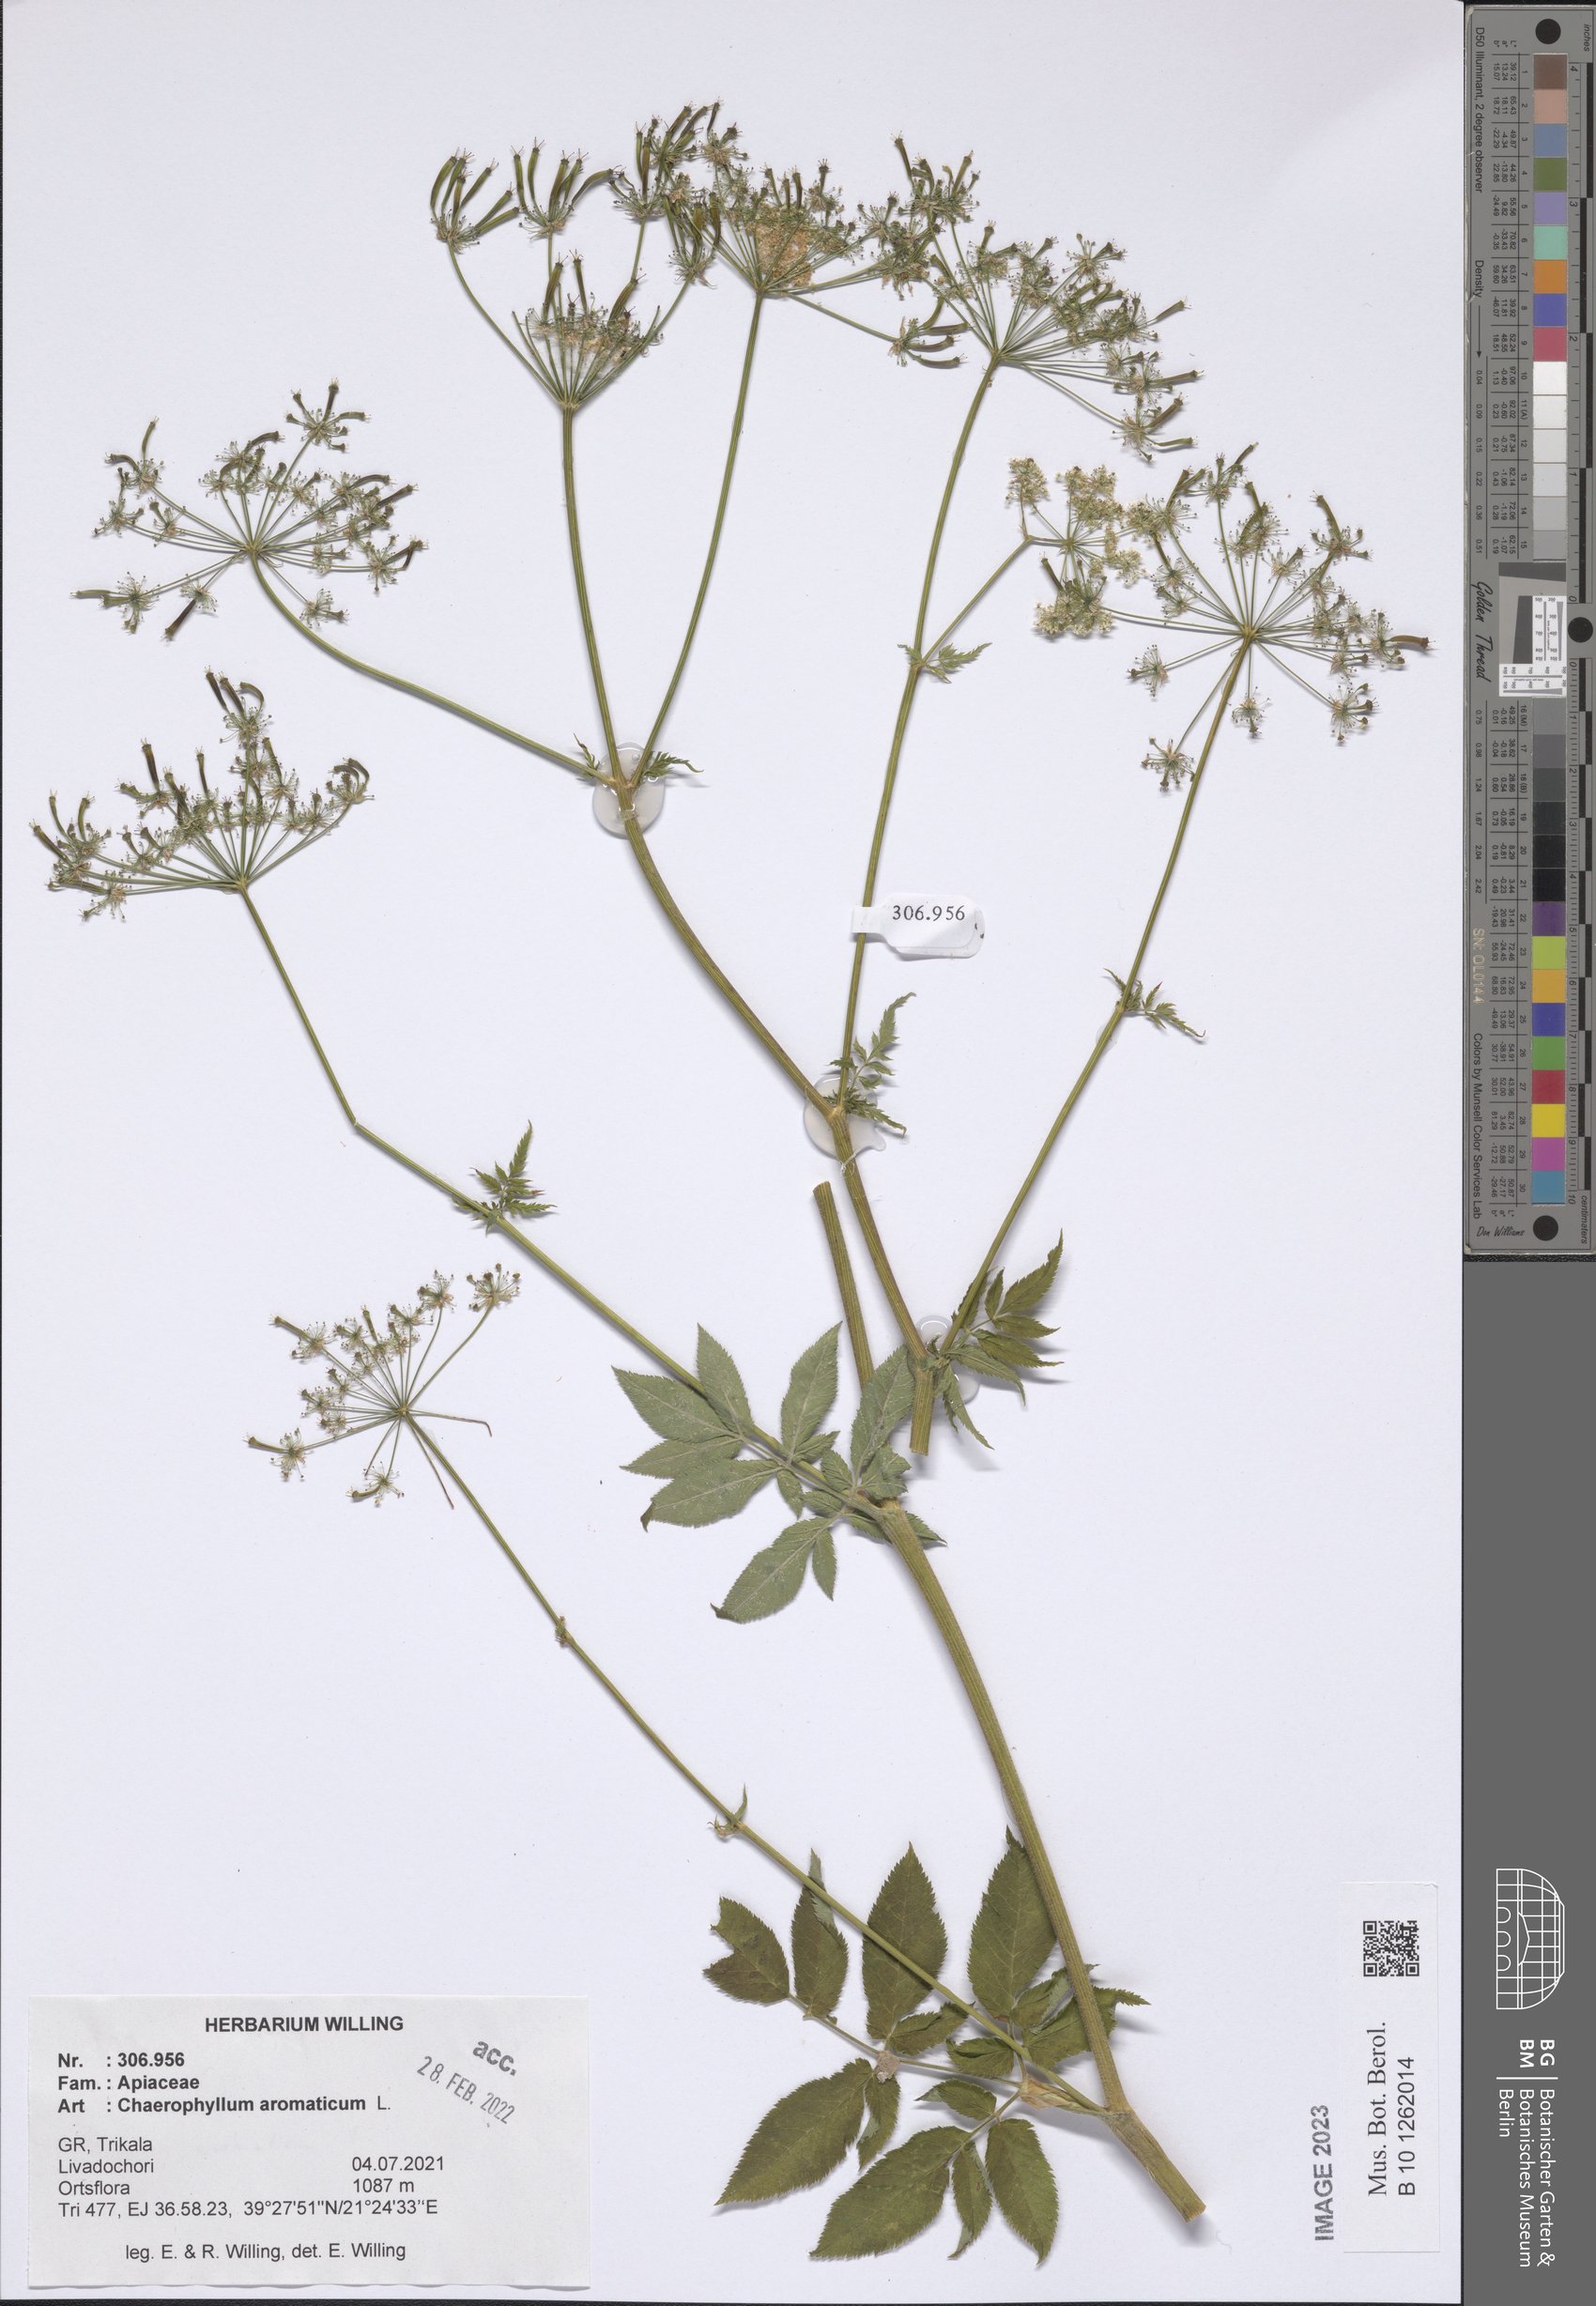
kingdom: Plantae
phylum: Tracheophyta
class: Magnoliopsida
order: Apiales
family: Apiaceae
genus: Chaerophyllum
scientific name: Chaerophyllum aromaticum
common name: Broadleaf chervil
